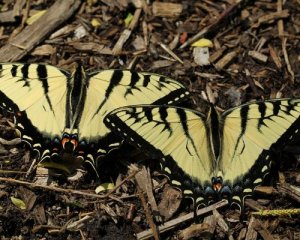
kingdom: Animalia
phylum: Arthropoda
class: Insecta
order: Lepidoptera
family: Papilionidae
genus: Pterourus
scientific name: Pterourus glaucus
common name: Eastern Tiger Swallowtail
